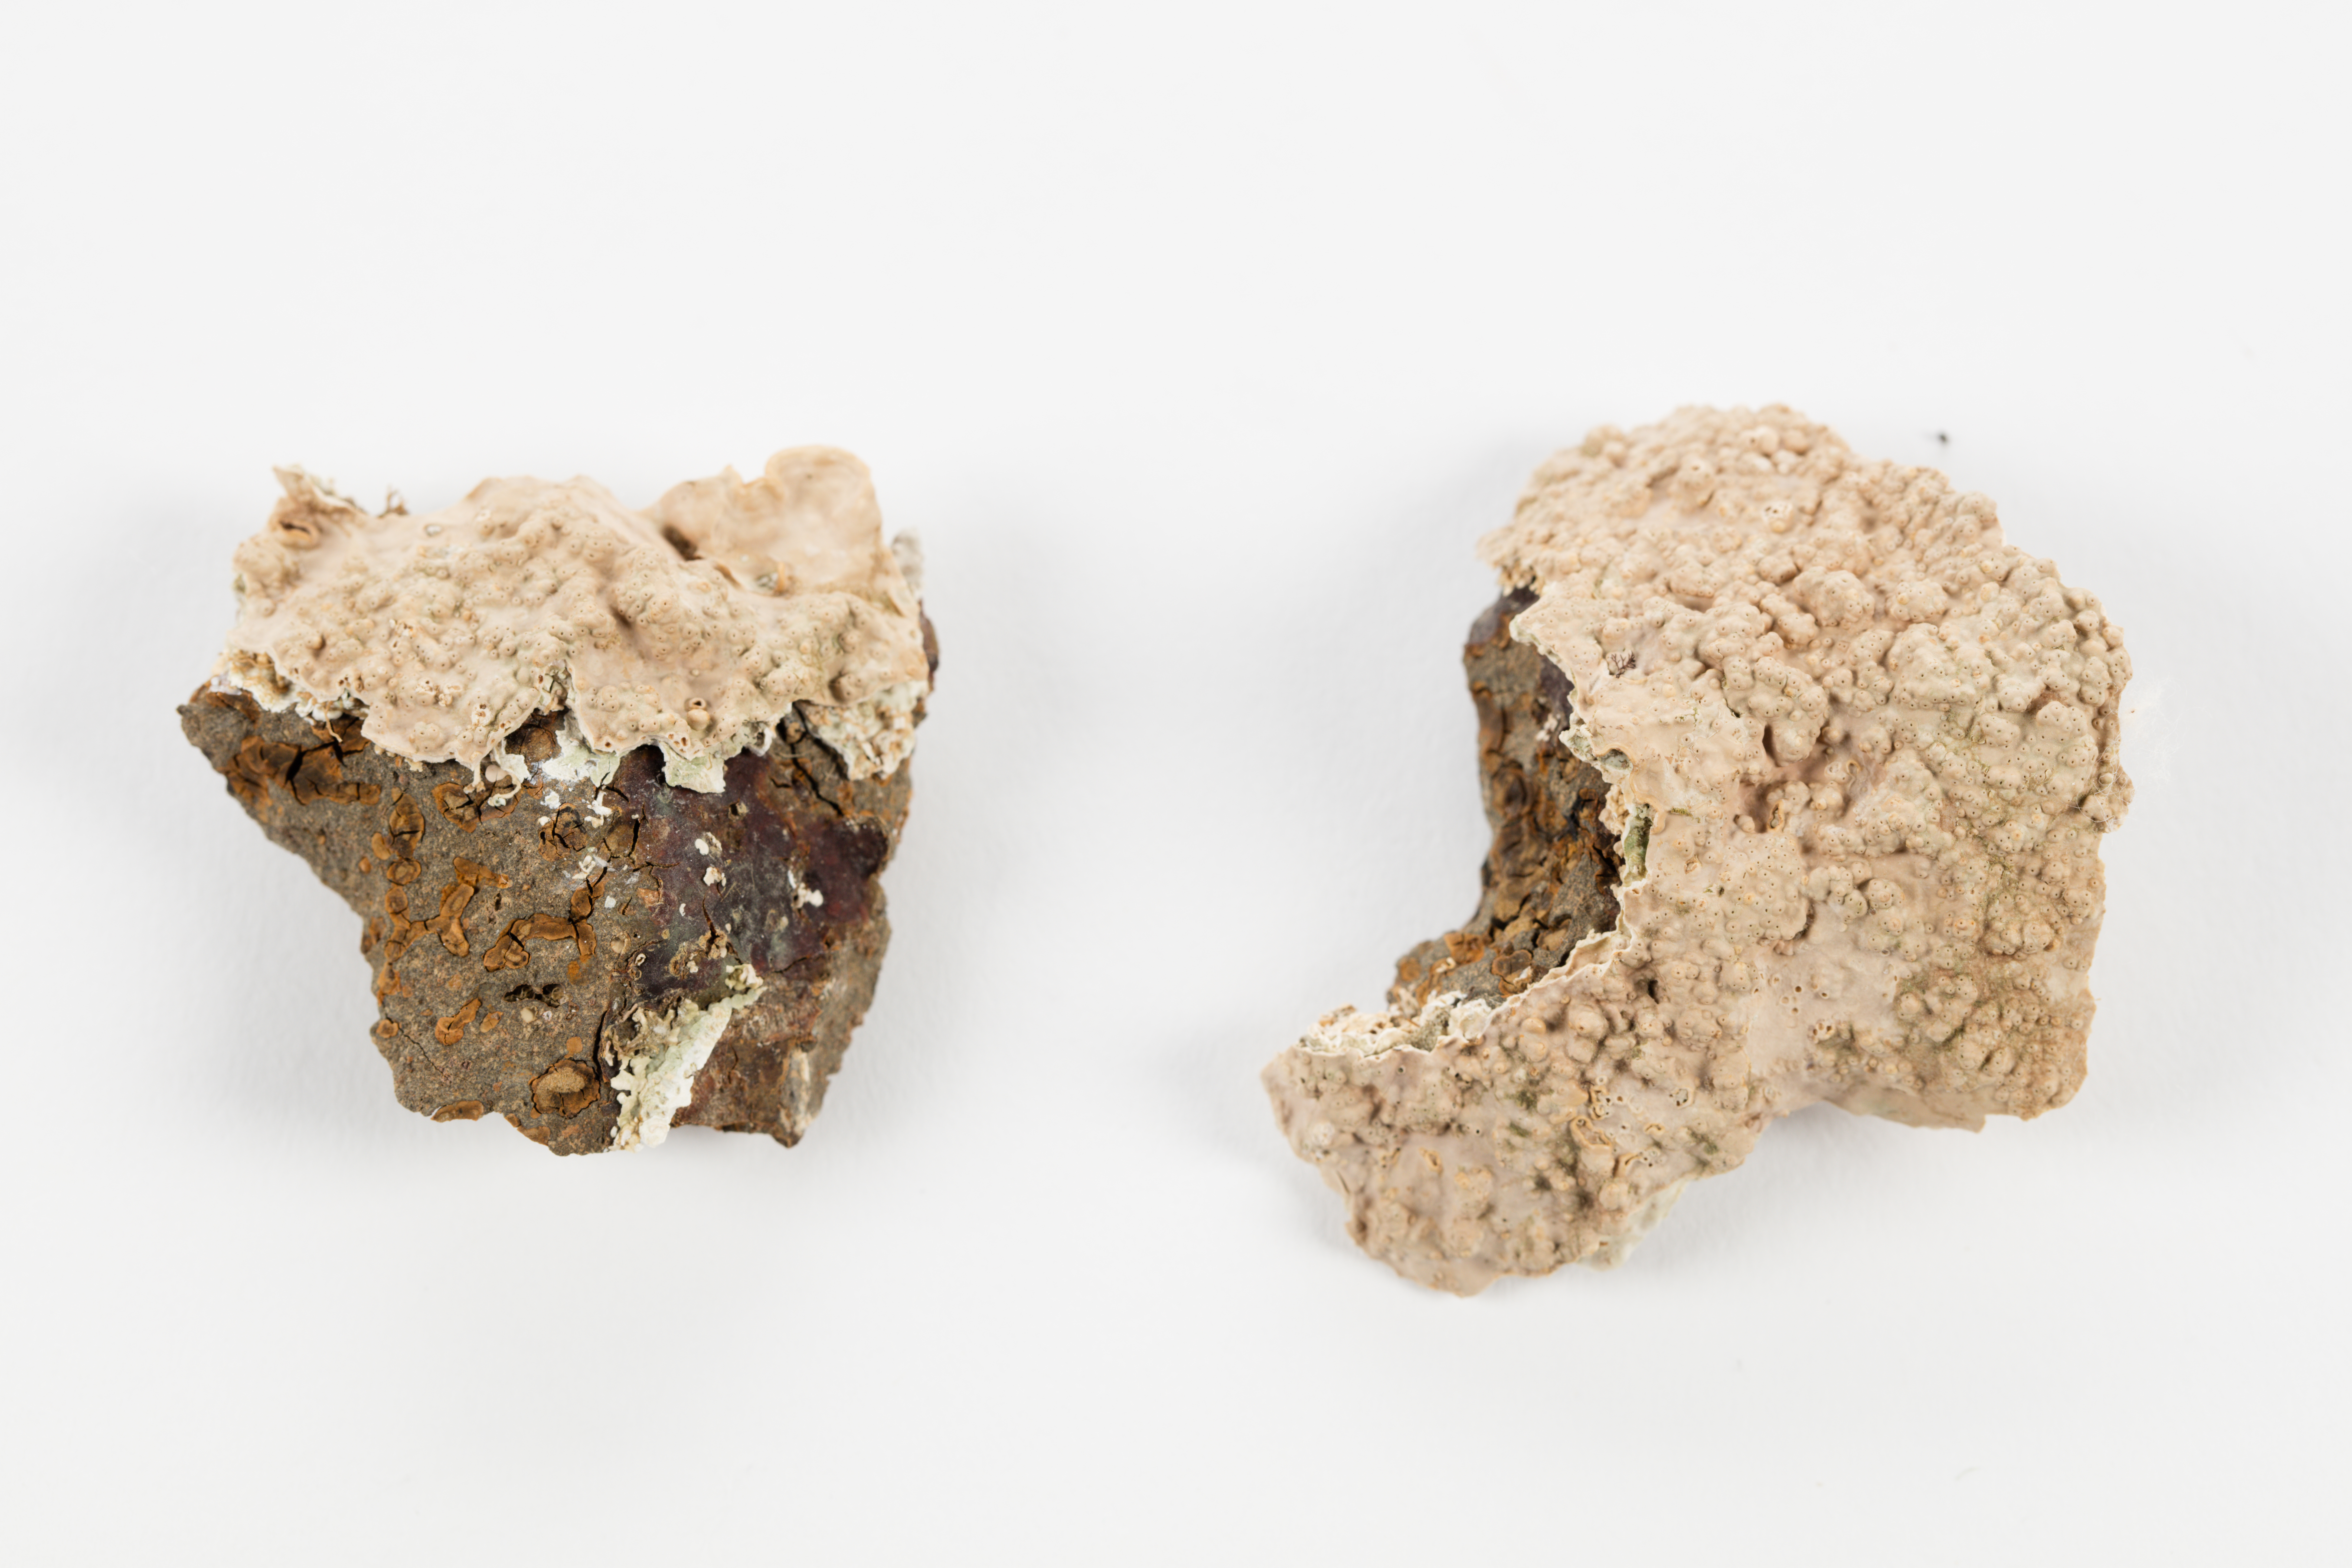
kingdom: Plantae
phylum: Rhodophyta
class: Florideophyceae
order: Corallinales
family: Hapalidiaceae
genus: Lithothamnion
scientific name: Lithothamnion
